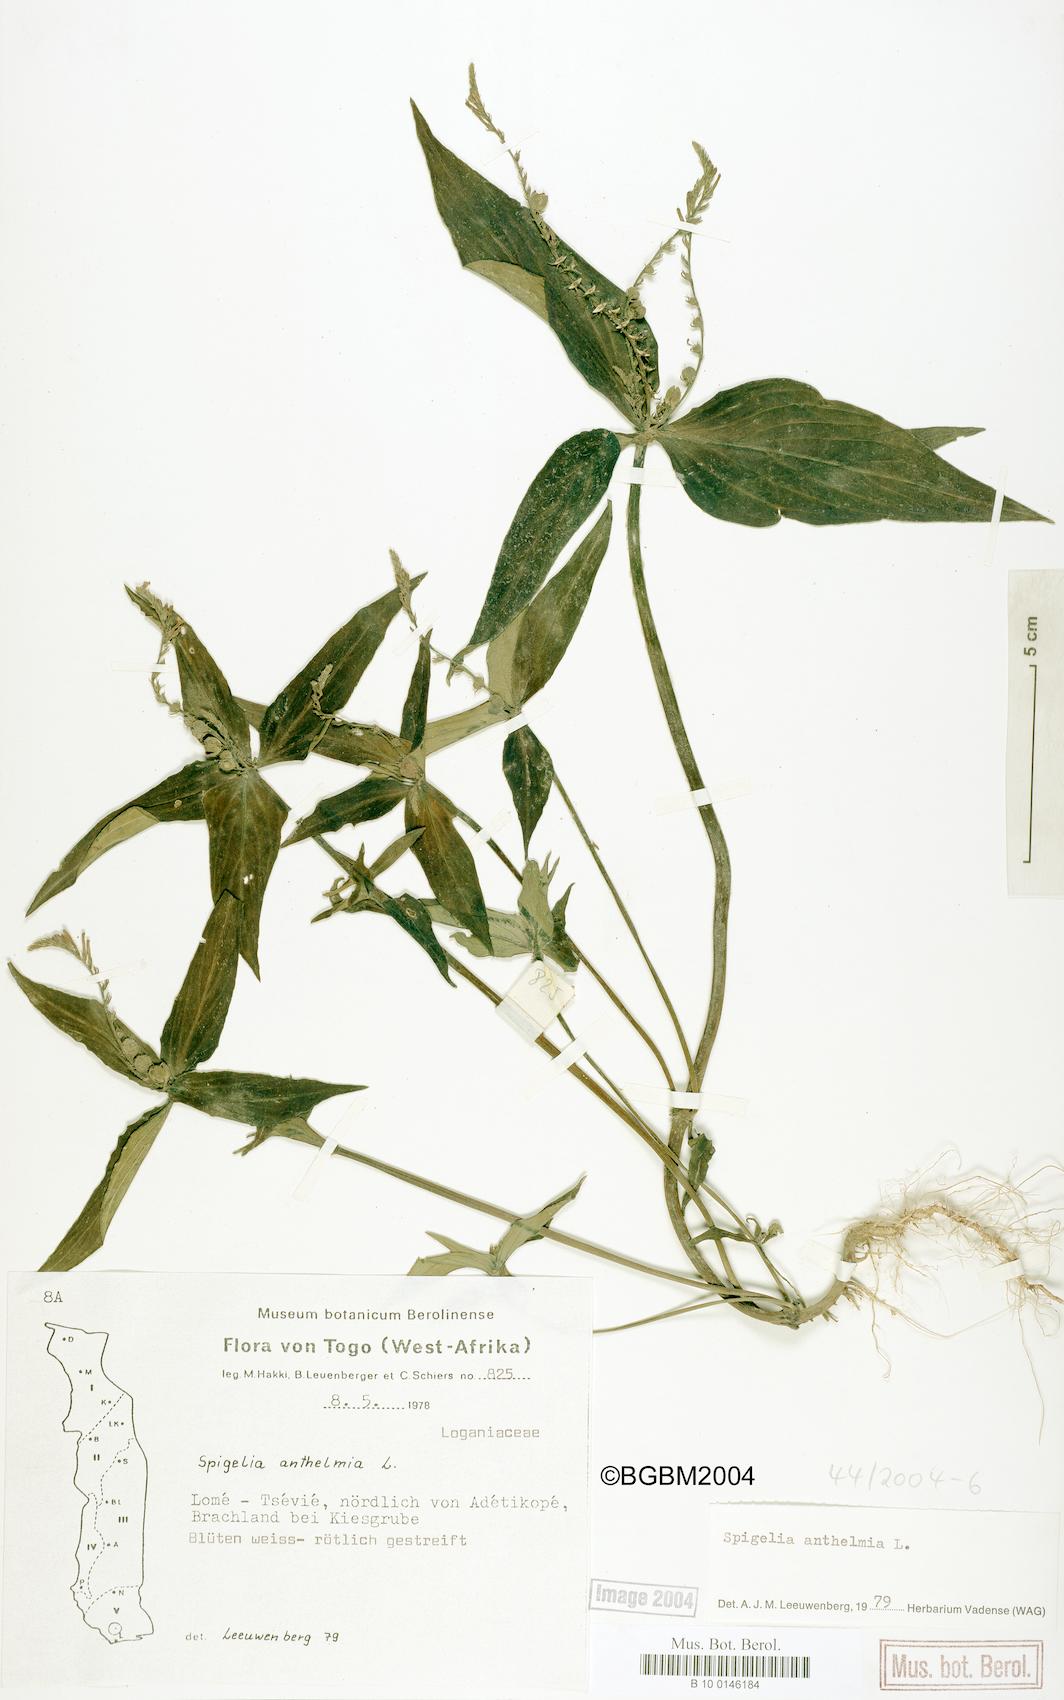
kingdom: Plantae
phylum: Tracheophyta
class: Magnoliopsida
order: Gentianales
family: Loganiaceae
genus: Spigelia
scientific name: Spigelia anthelmia
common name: West indian-pink
